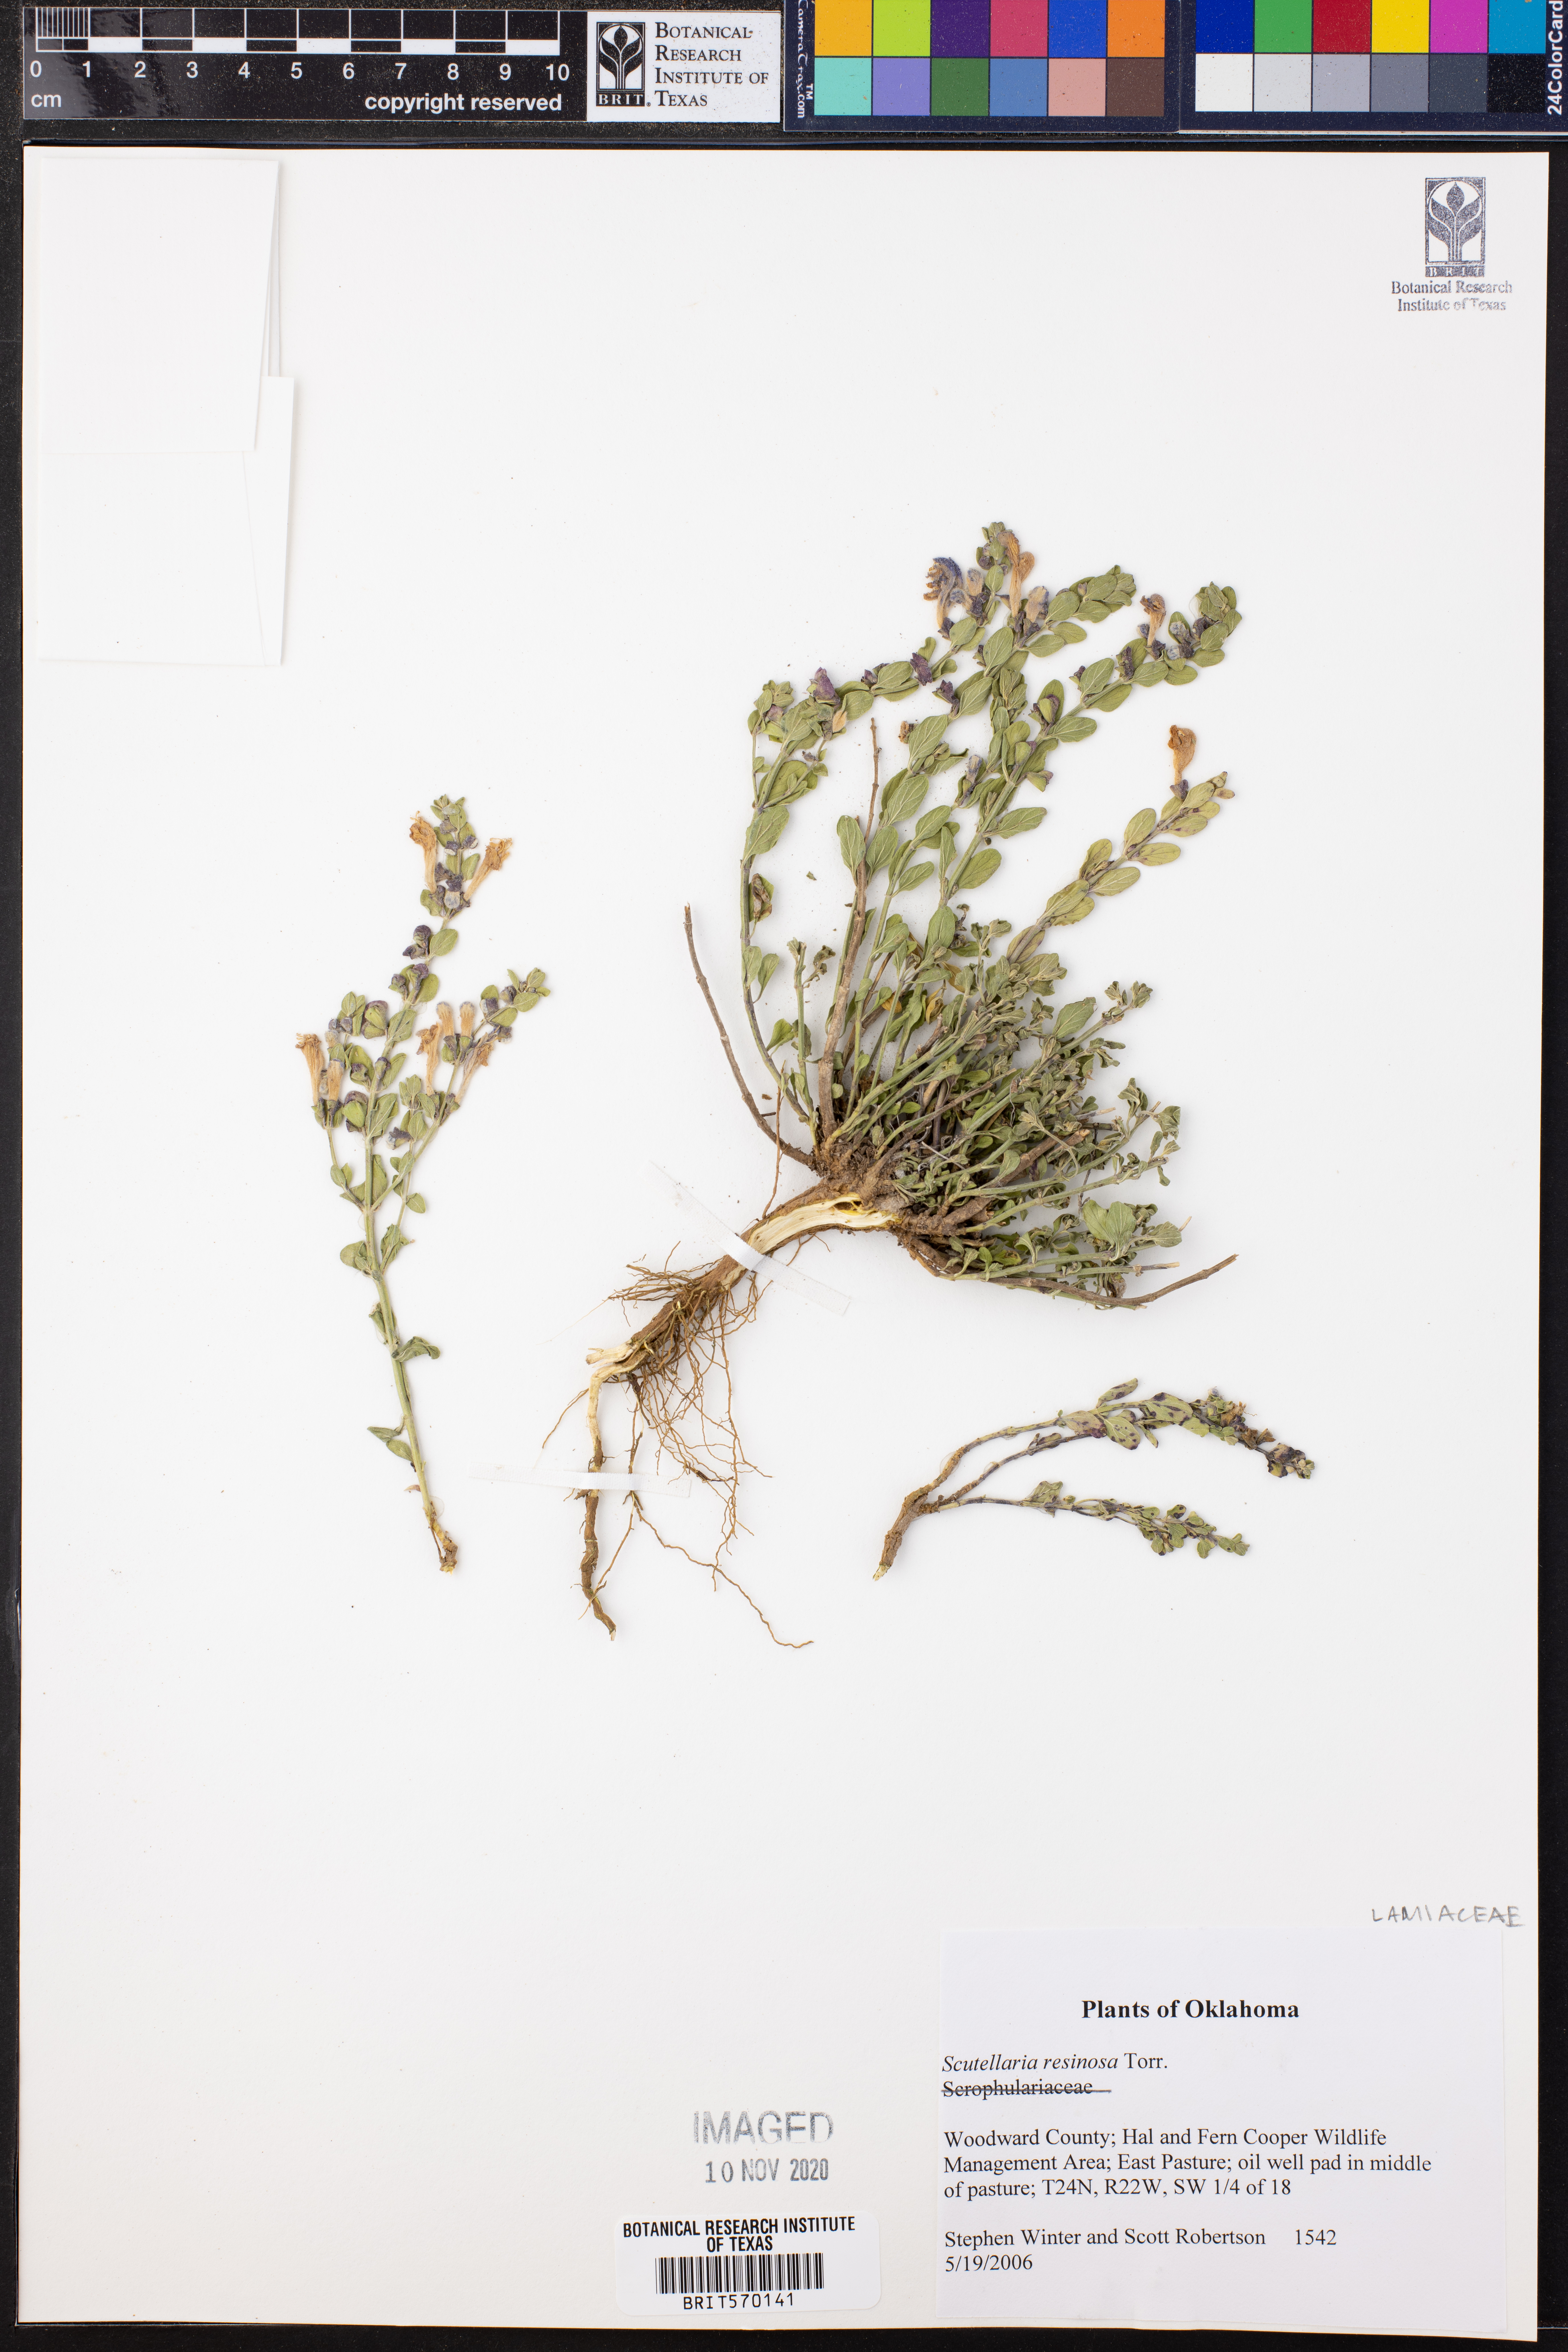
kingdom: Plantae
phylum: Tracheophyta
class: Magnoliopsida
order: Lamiales
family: Lamiaceae
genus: Scutellaria
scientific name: Scutellaria resinosa
